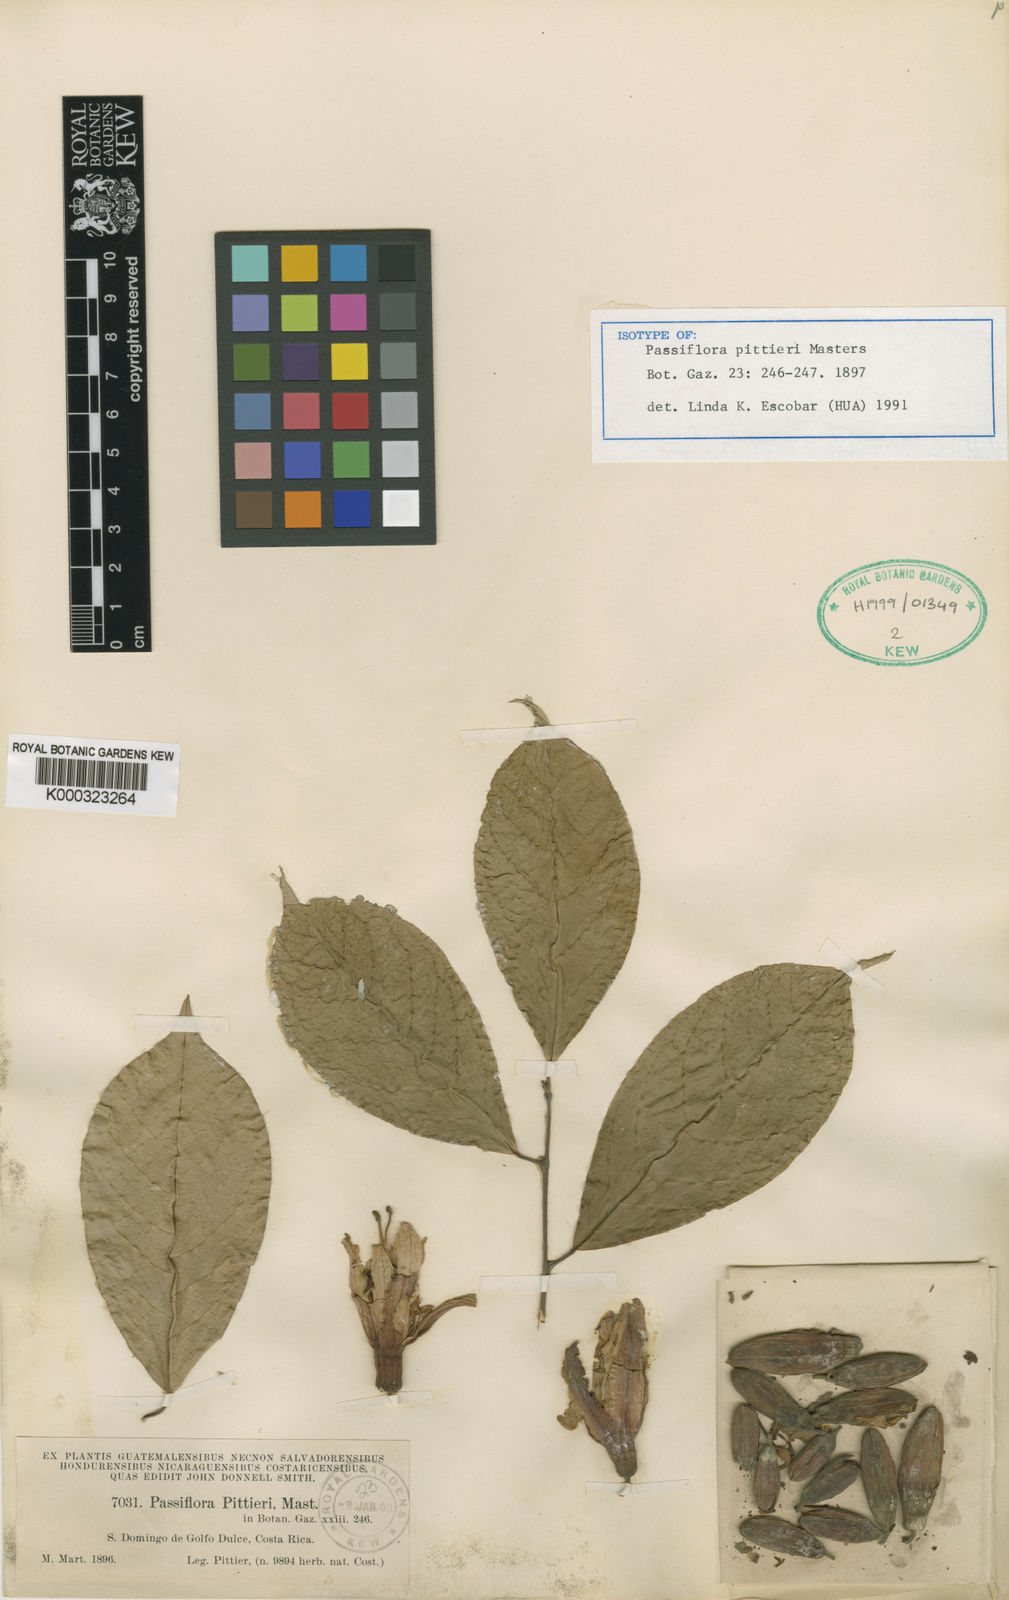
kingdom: Plantae
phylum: Tracheophyta
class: Magnoliopsida
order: Malpighiales
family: Passifloraceae
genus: Passiflora
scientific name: Passiflora pittieri
